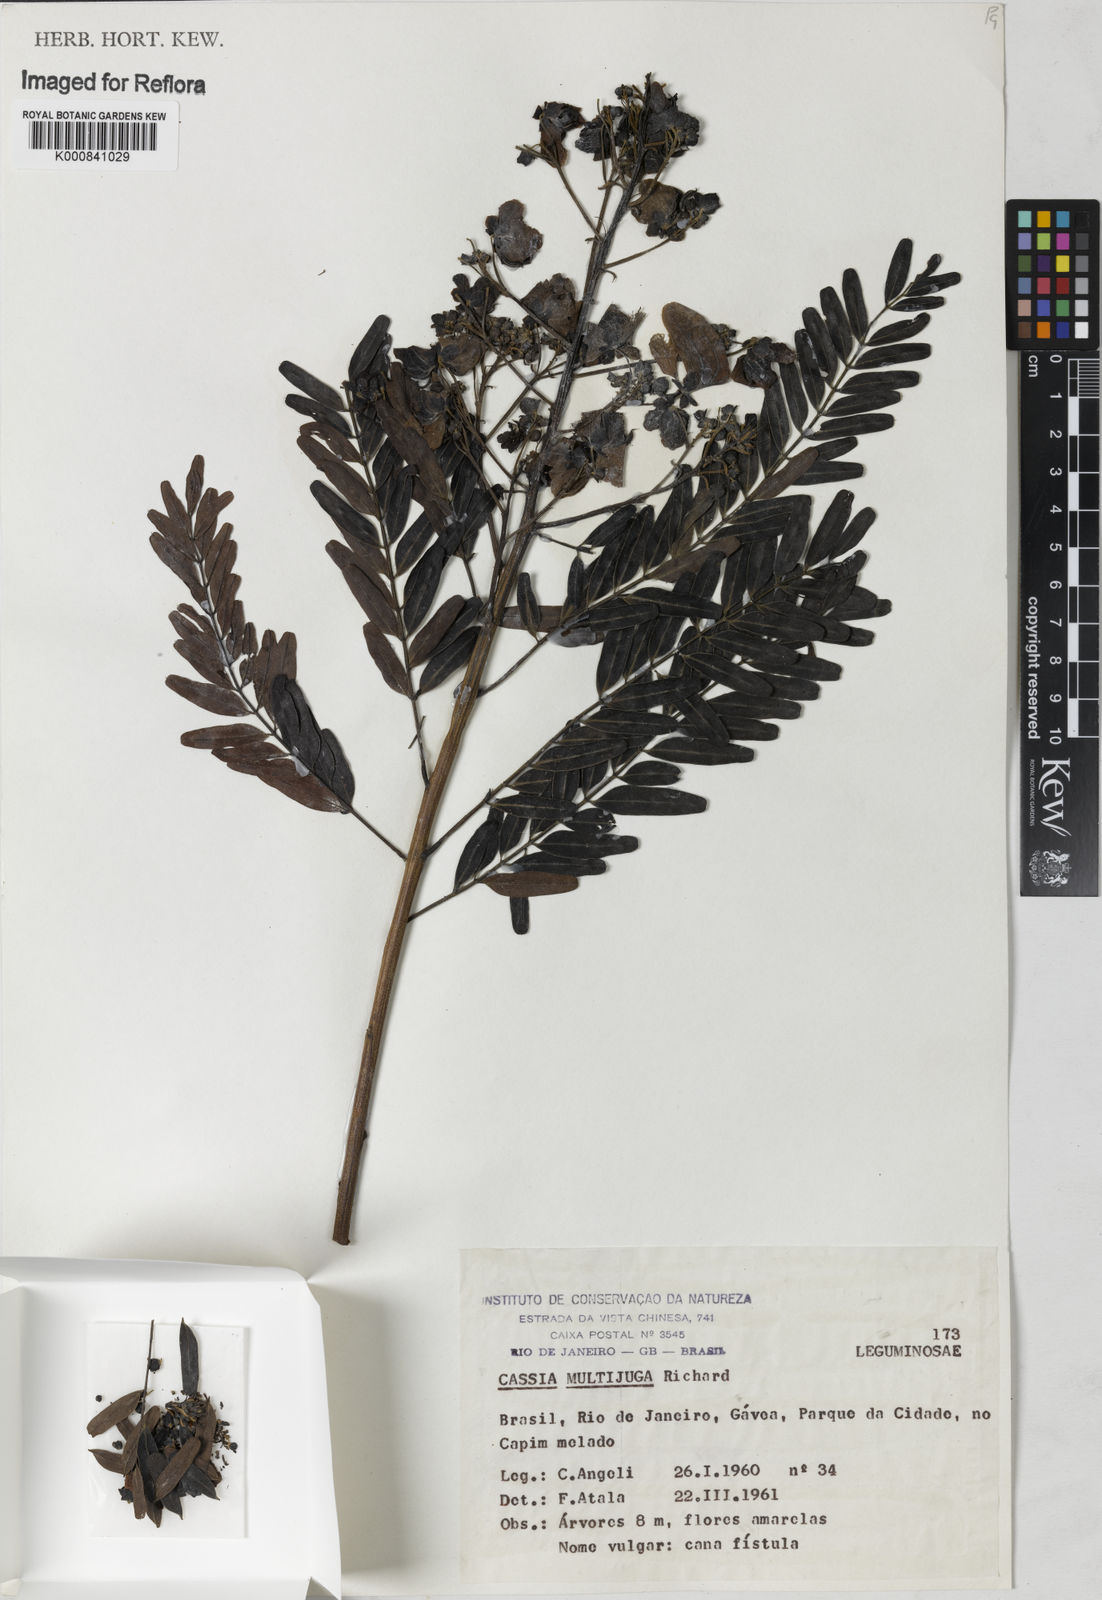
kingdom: Plantae
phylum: Tracheophyta
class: Magnoliopsida
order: Fabales
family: Fabaceae
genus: Senna
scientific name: Senna multijuga
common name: False sicklepod
